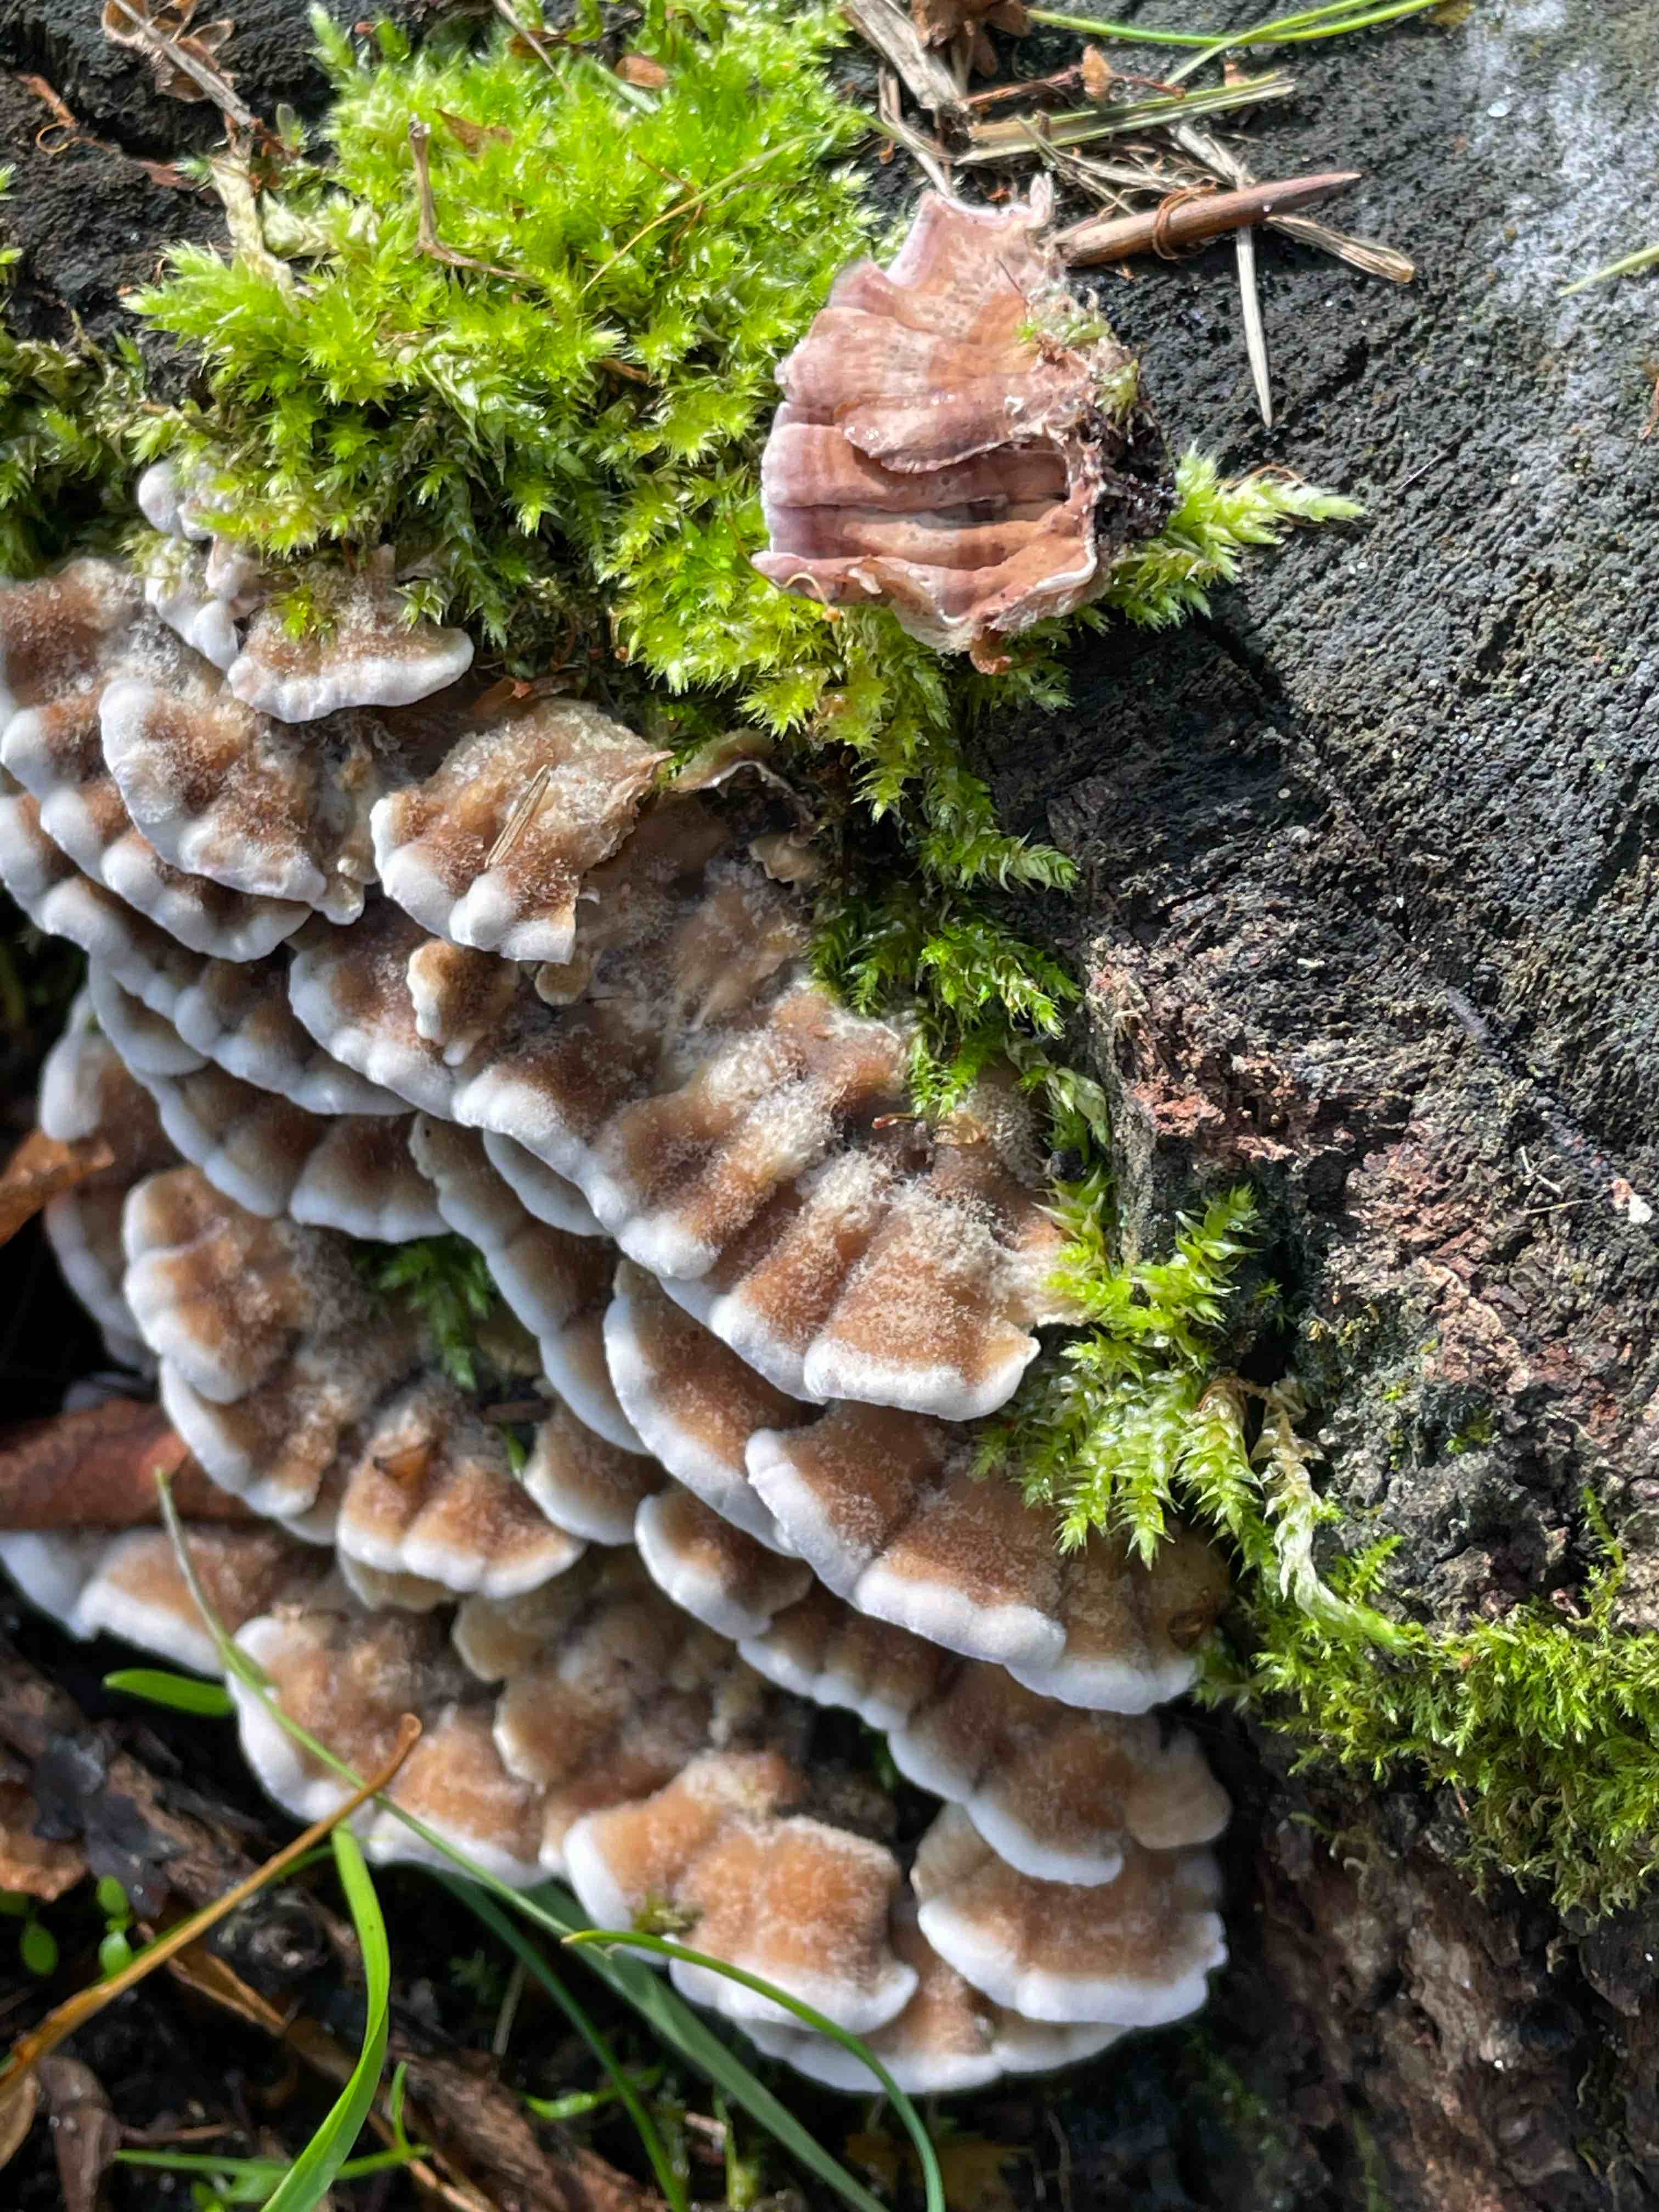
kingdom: Fungi
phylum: Basidiomycota
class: Agaricomycetes
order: Agaricales
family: Cyphellaceae
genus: Chondrostereum
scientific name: Chondrostereum purpureum
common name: purpurlædersvamp
